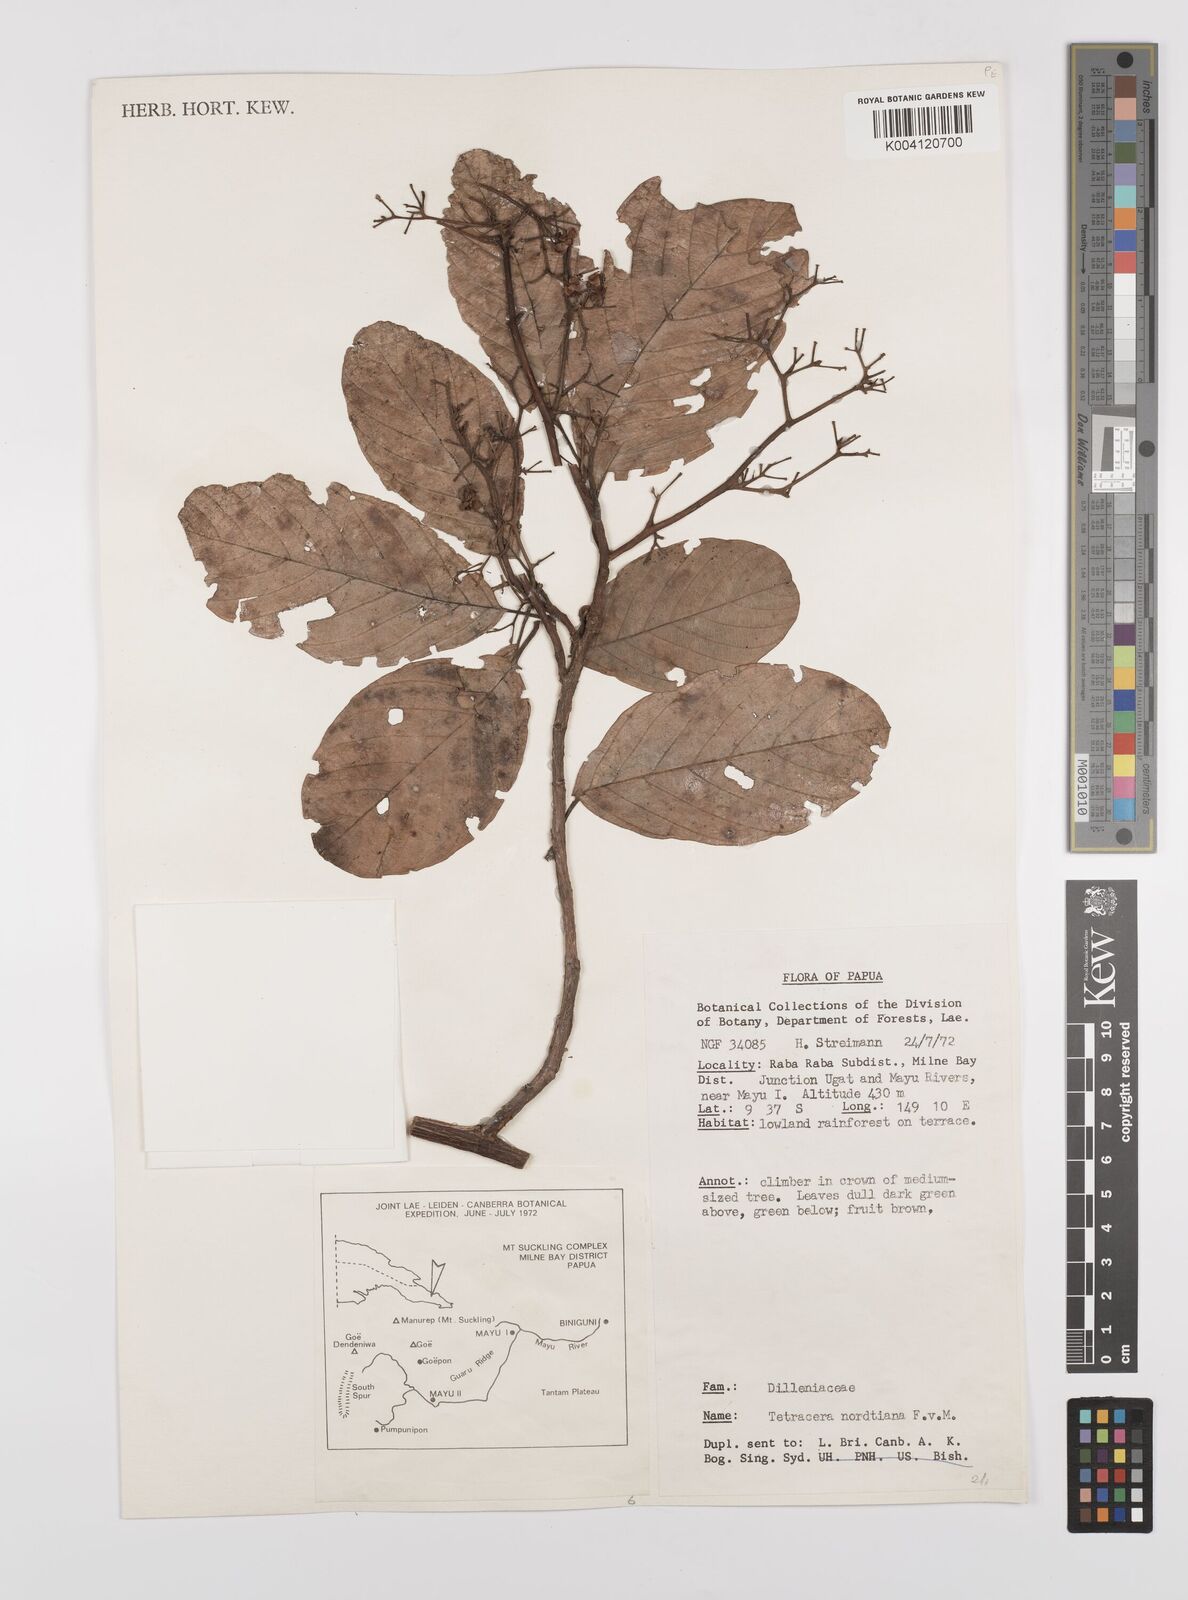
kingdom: Plantae
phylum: Tracheophyta
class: Magnoliopsida
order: Dilleniales
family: Dilleniaceae
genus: Tetracera
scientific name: Tetracera nordtiana
